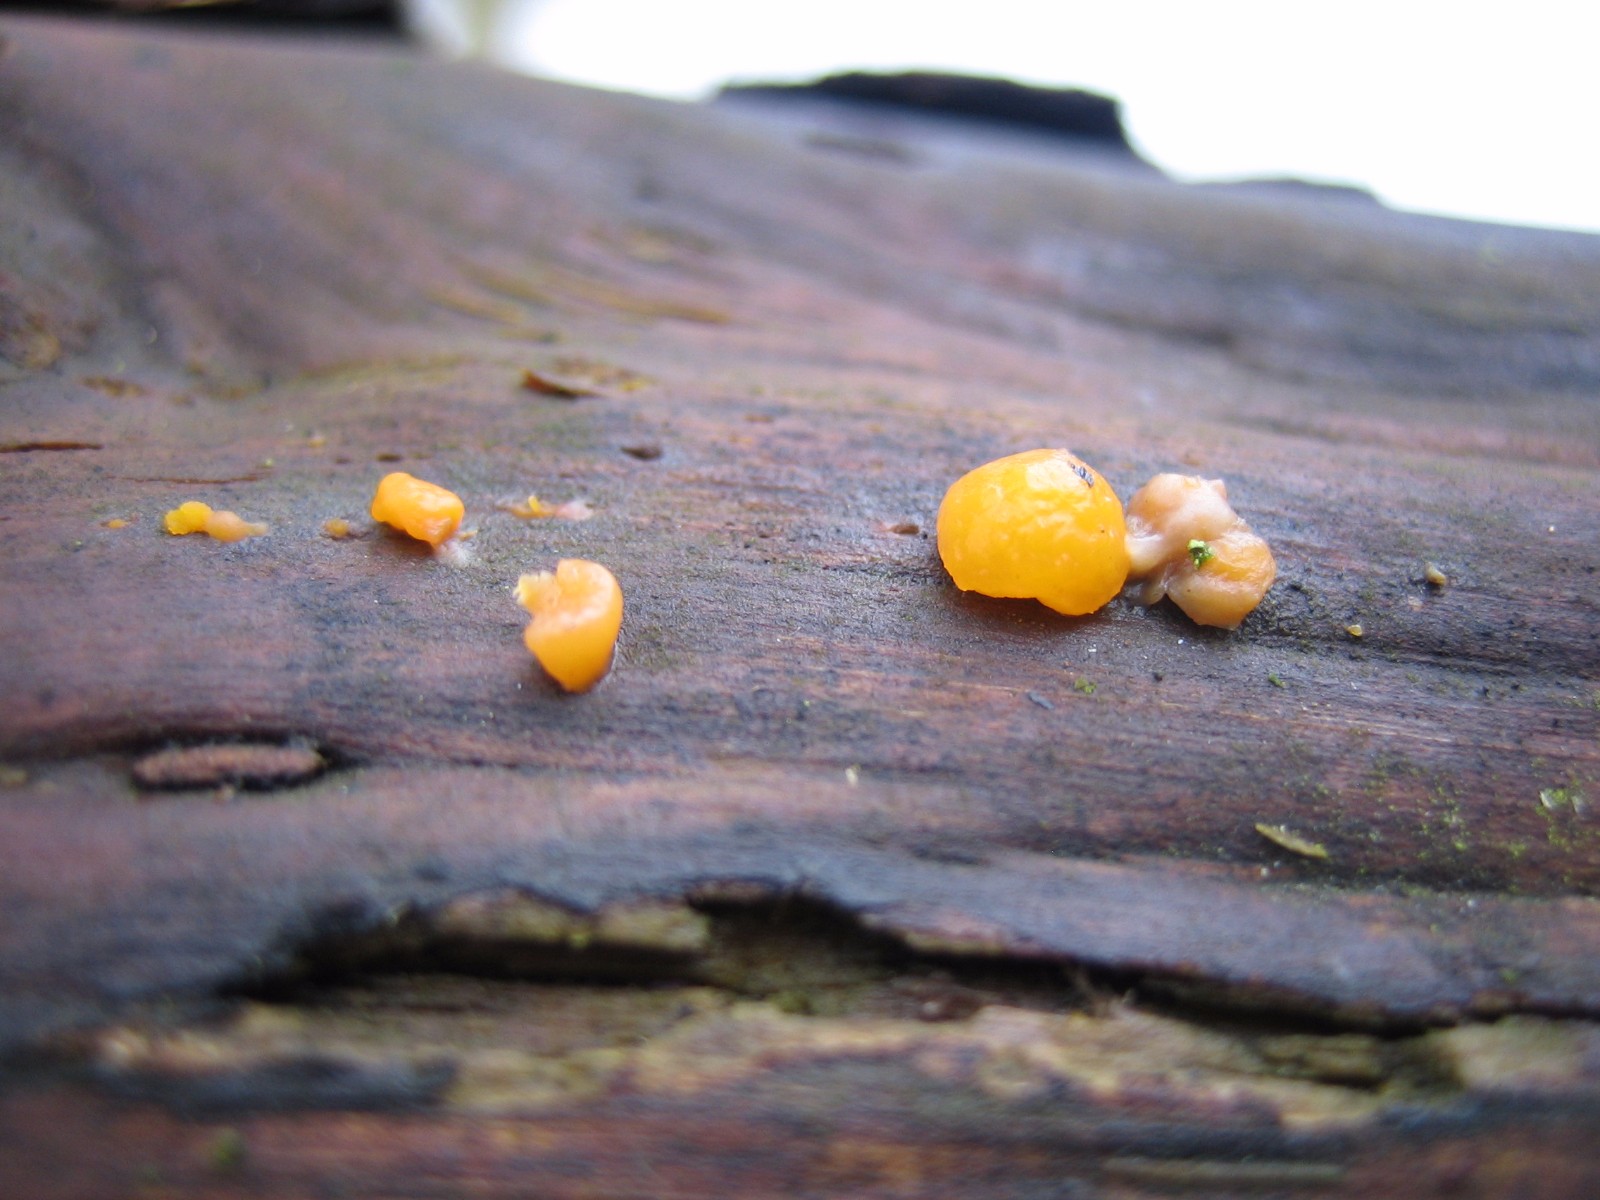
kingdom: Fungi
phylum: Basidiomycota
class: Dacrymycetes
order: Dacrymycetales
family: Dacrymycetaceae
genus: Dacrymyces
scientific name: Dacrymyces stillatus
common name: almindelig tåresvamp
